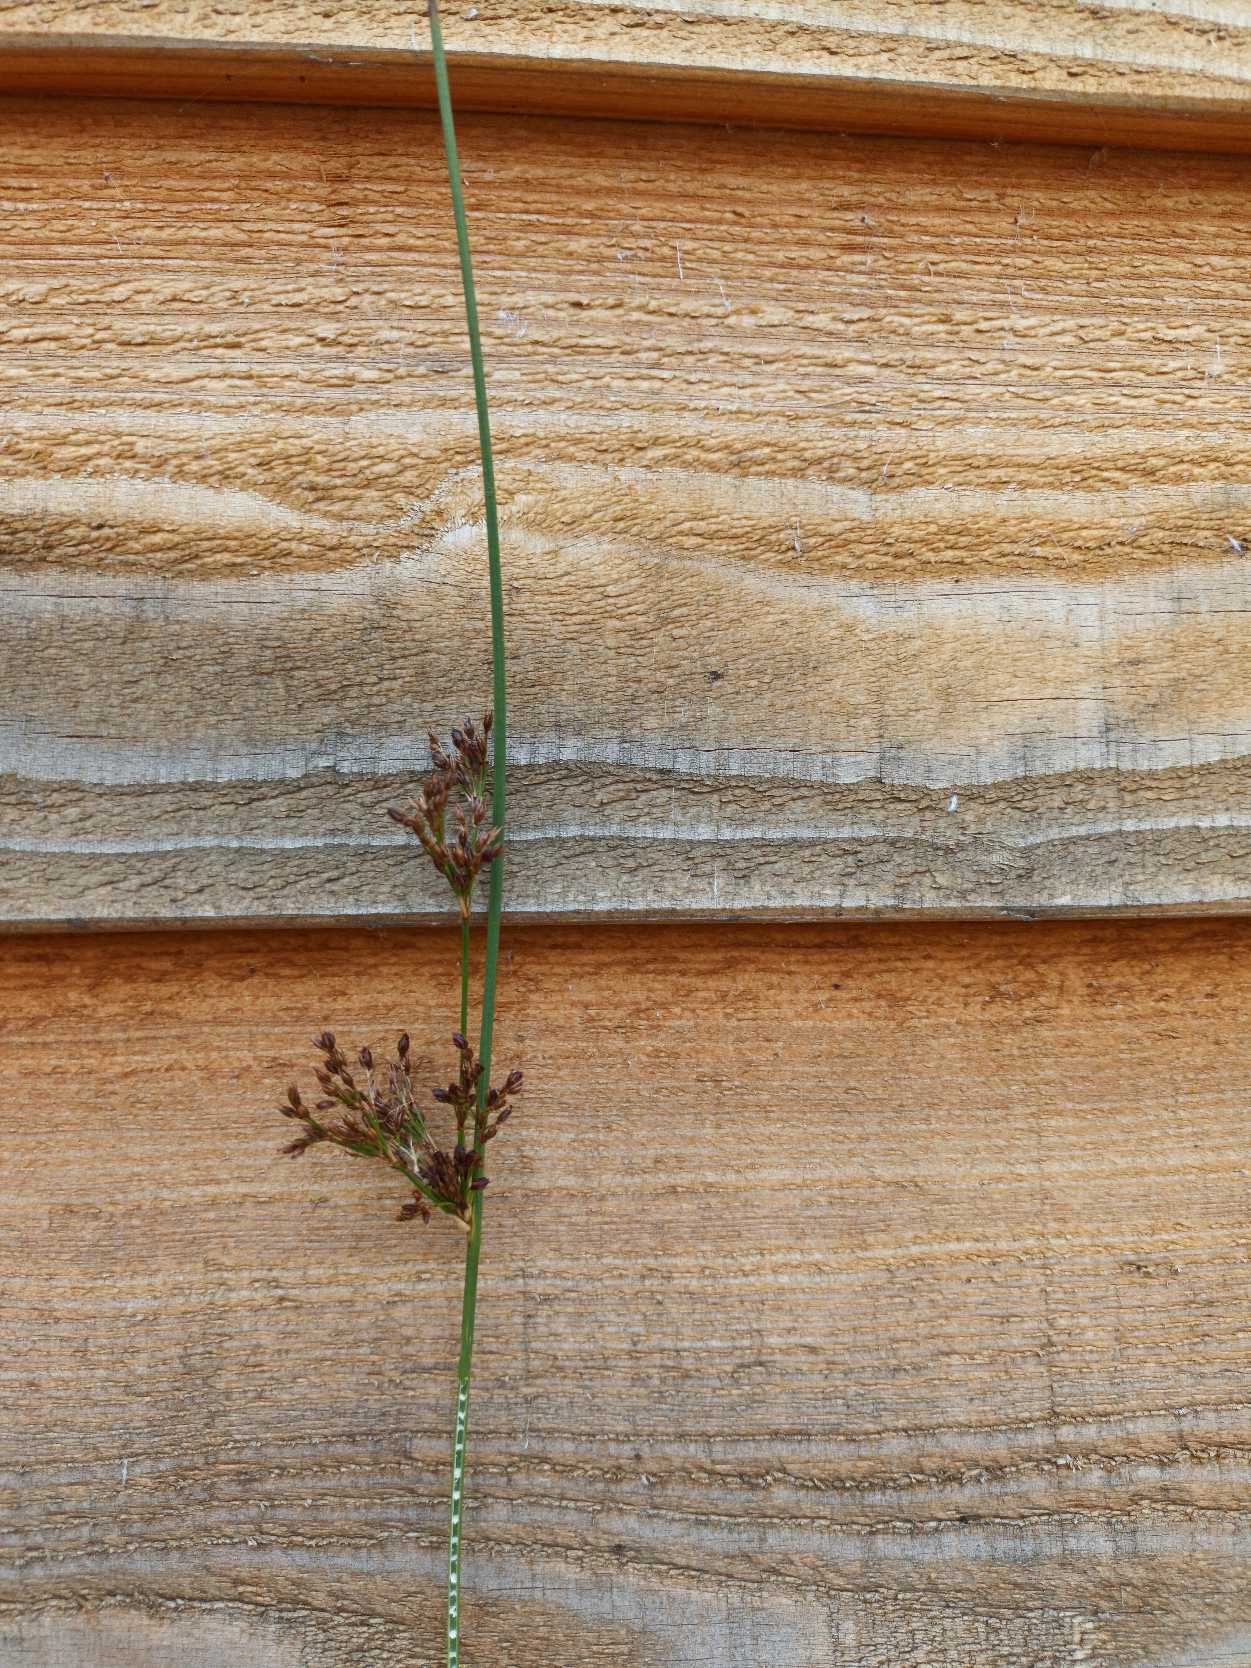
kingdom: Plantae
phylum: Tracheophyta
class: Liliopsida
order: Poales
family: Juncaceae
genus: Juncus
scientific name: Juncus inflexus
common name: Blågrå siv
